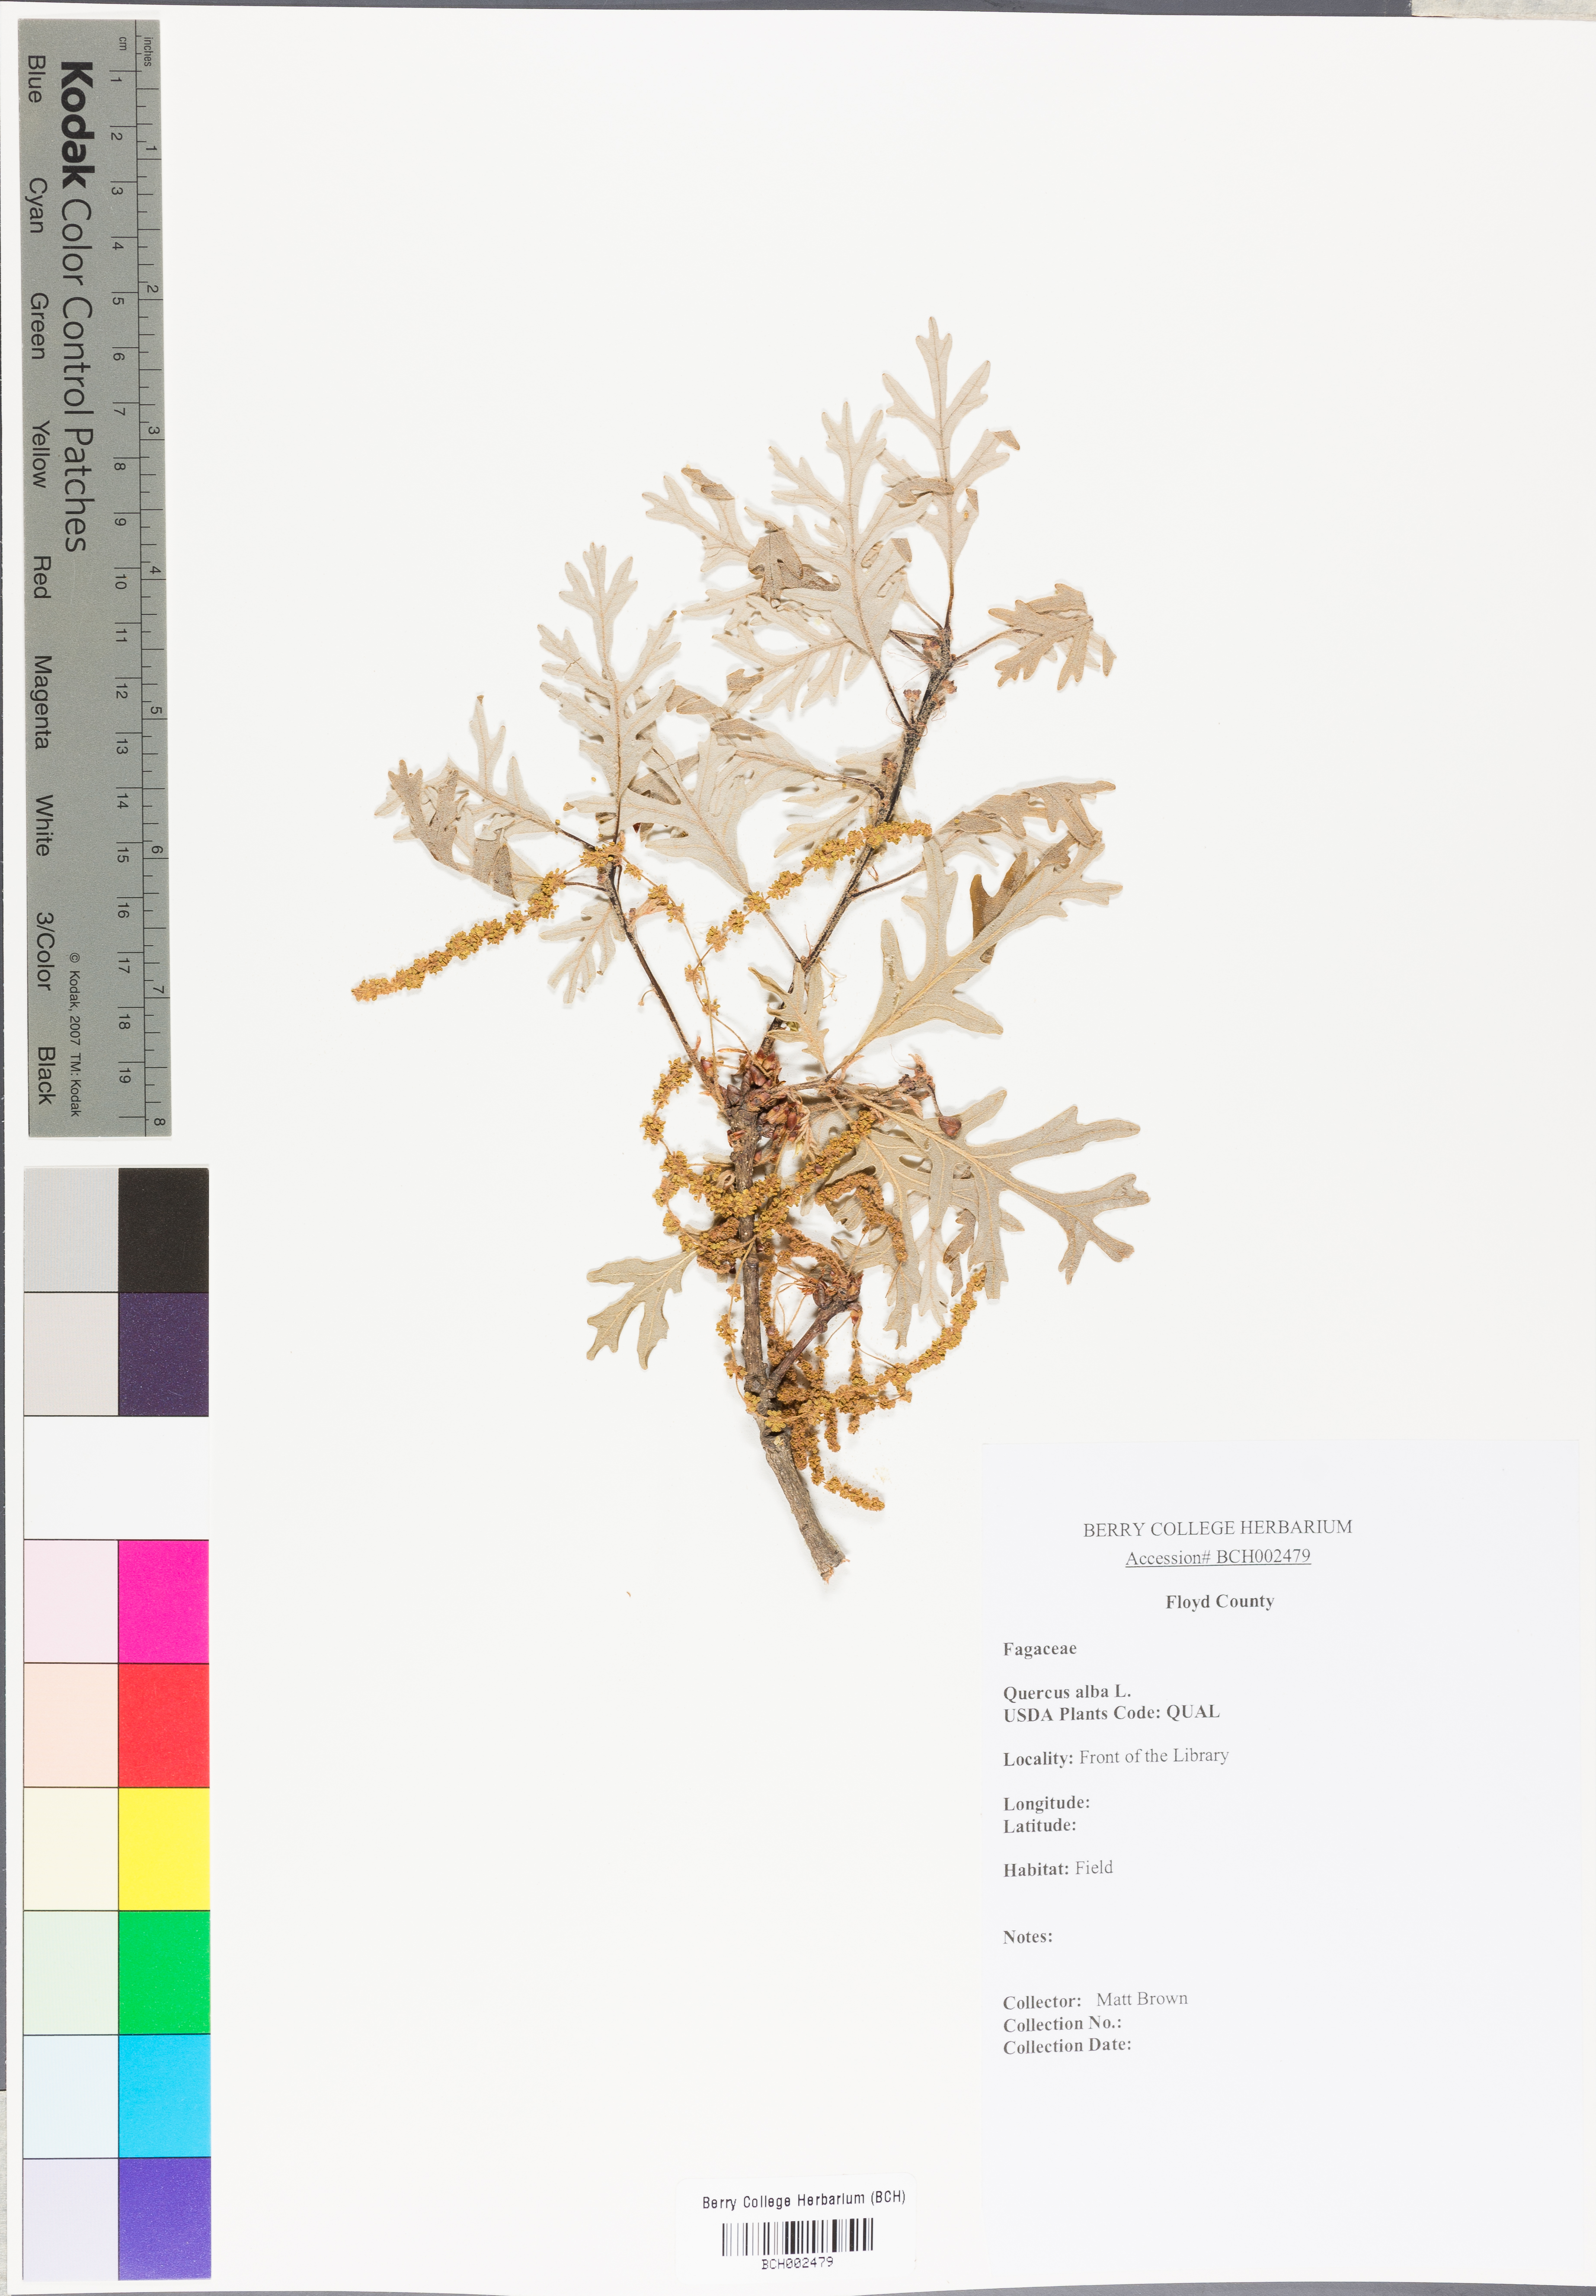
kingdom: Plantae
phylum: Tracheophyta
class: Magnoliopsida
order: Fagales
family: Fagaceae
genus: Quercus
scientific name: Quercus alba
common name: White oak
